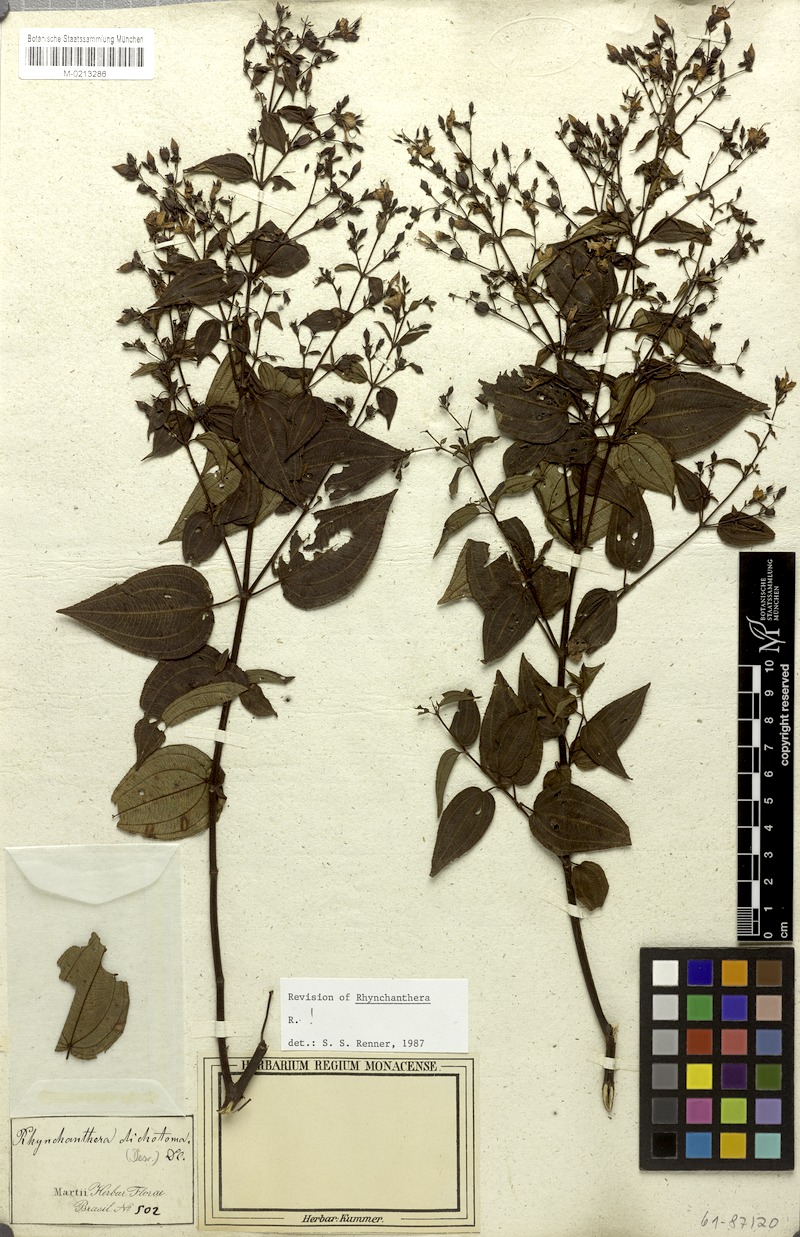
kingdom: Plantae
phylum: Tracheophyta
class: Magnoliopsida
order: Myrtales
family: Melastomataceae
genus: Rhynchanthera
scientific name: Rhynchanthera dichotoma
